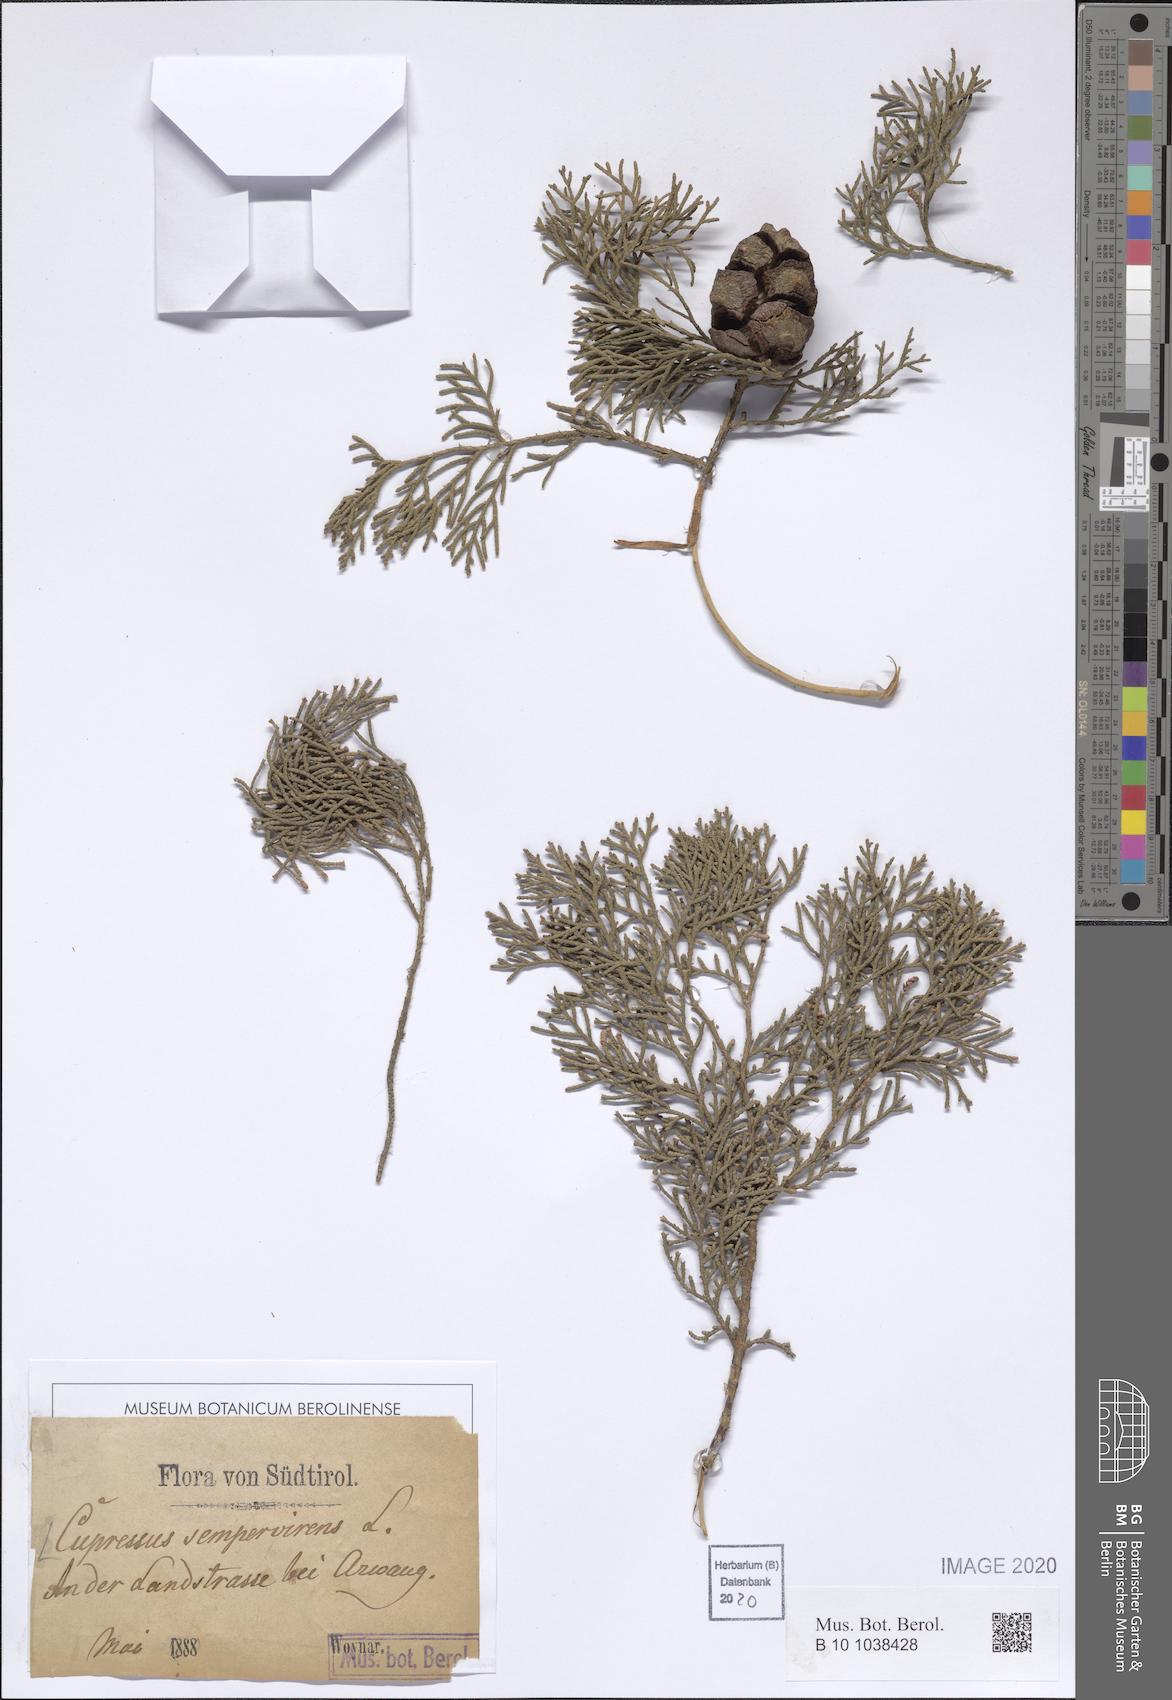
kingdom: Plantae
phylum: Tracheophyta
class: Pinopsida
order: Pinales
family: Cupressaceae
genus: Cupressus
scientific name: Cupressus sempervirens
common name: Italian cypress
